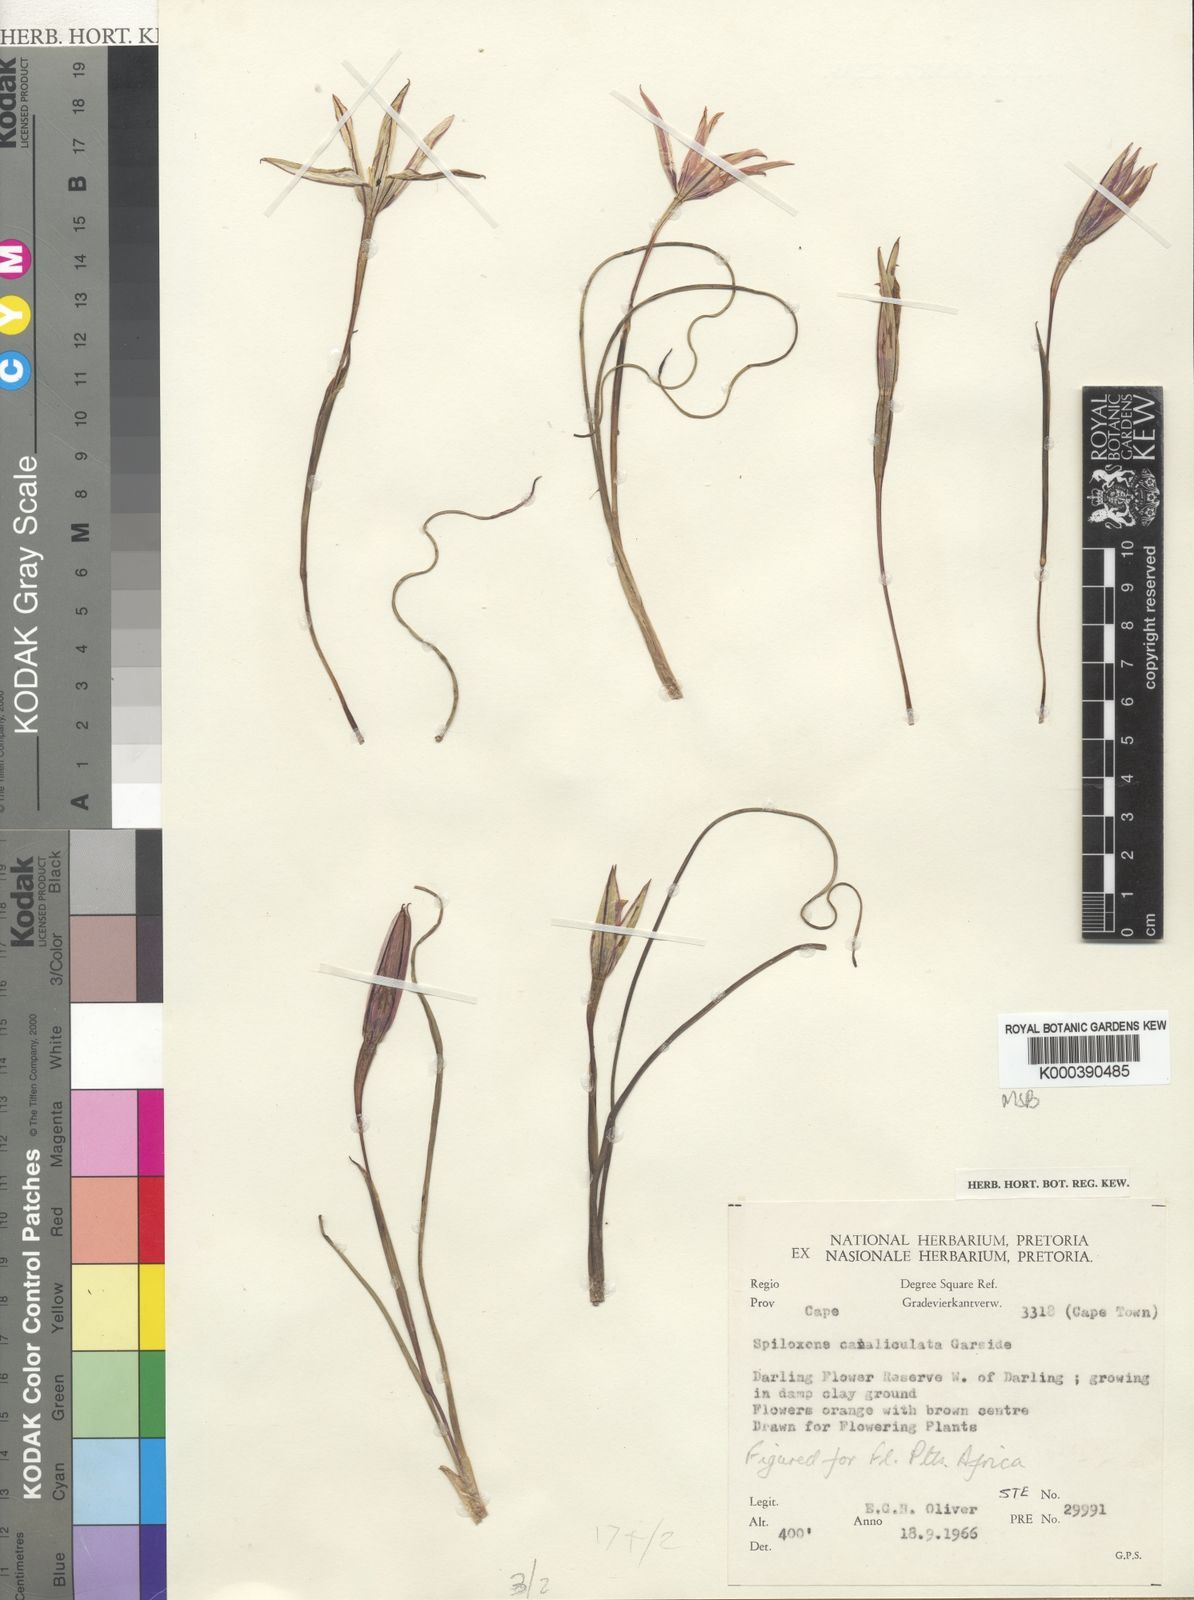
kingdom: Plantae
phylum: Tracheophyta
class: Liliopsida
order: Asparagales
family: Hypoxidaceae
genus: Pauridia
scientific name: Pauridia canaliculata
